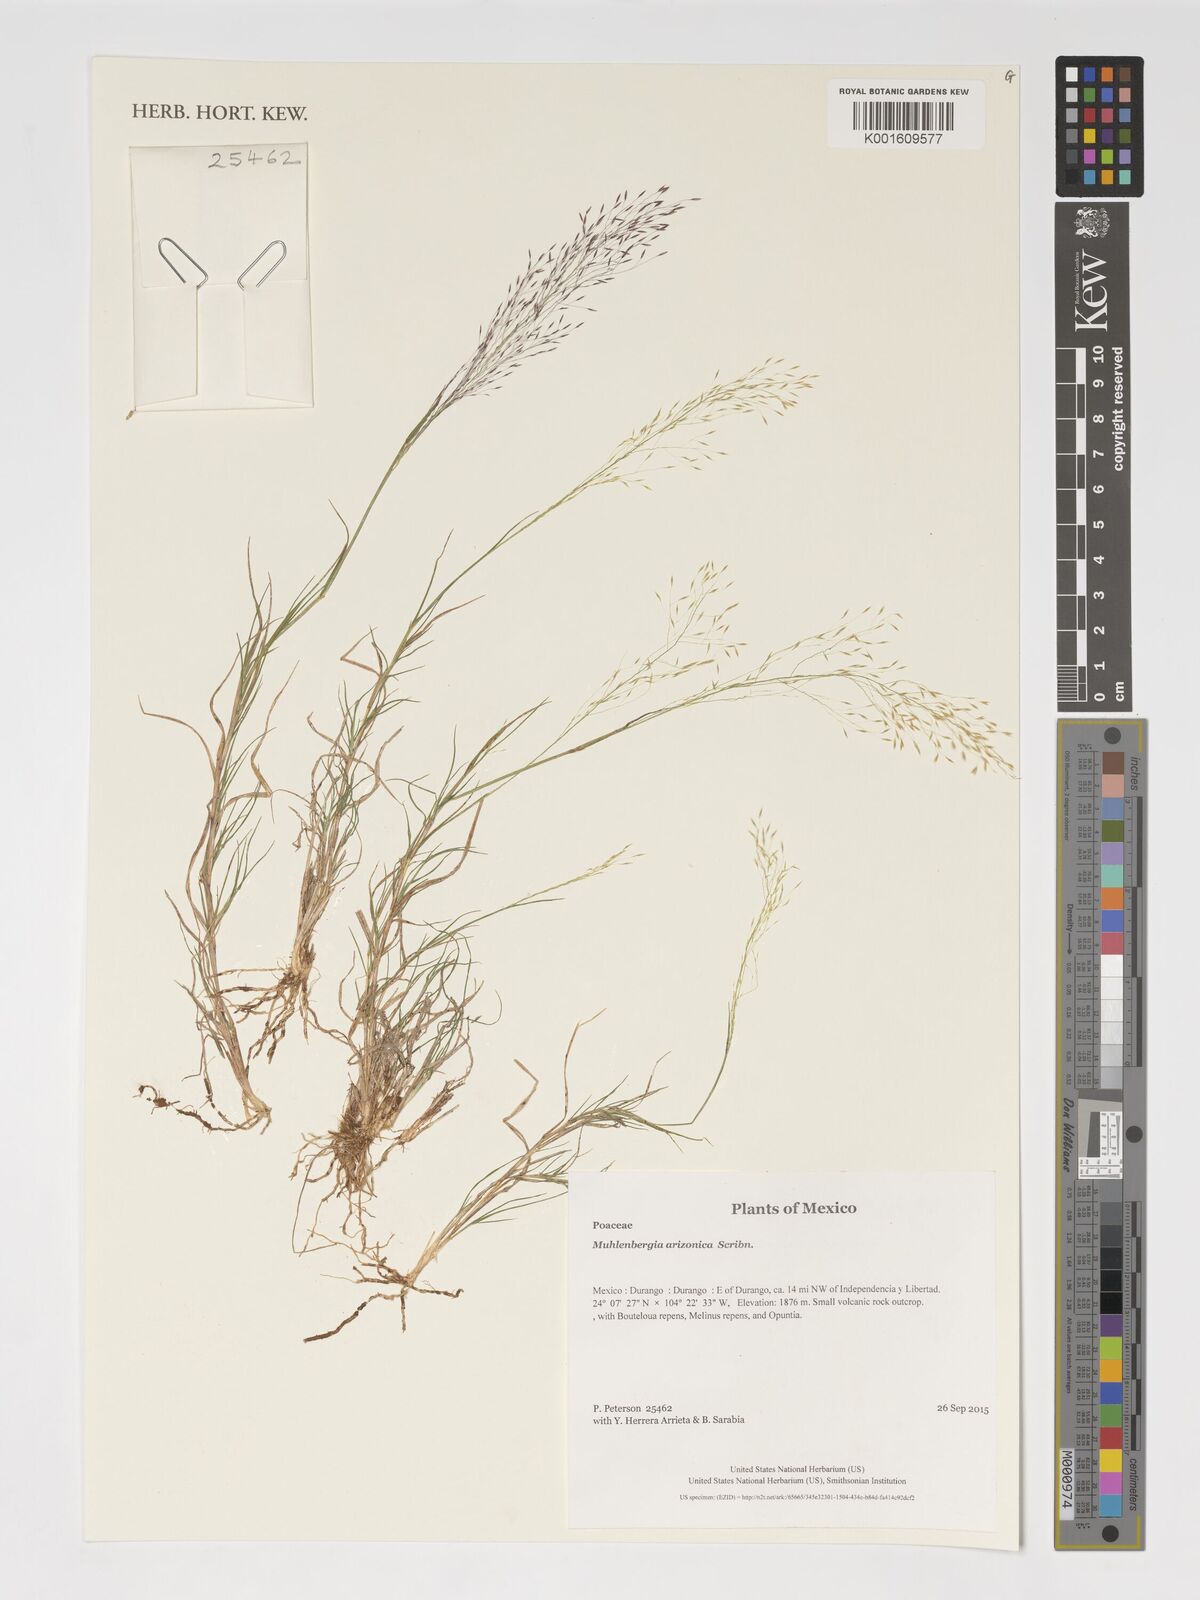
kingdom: Plantae
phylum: Tracheophyta
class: Liliopsida
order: Poales
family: Poaceae
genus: Muhlenbergia
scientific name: Muhlenbergia arizonica
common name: Arizona muhly
